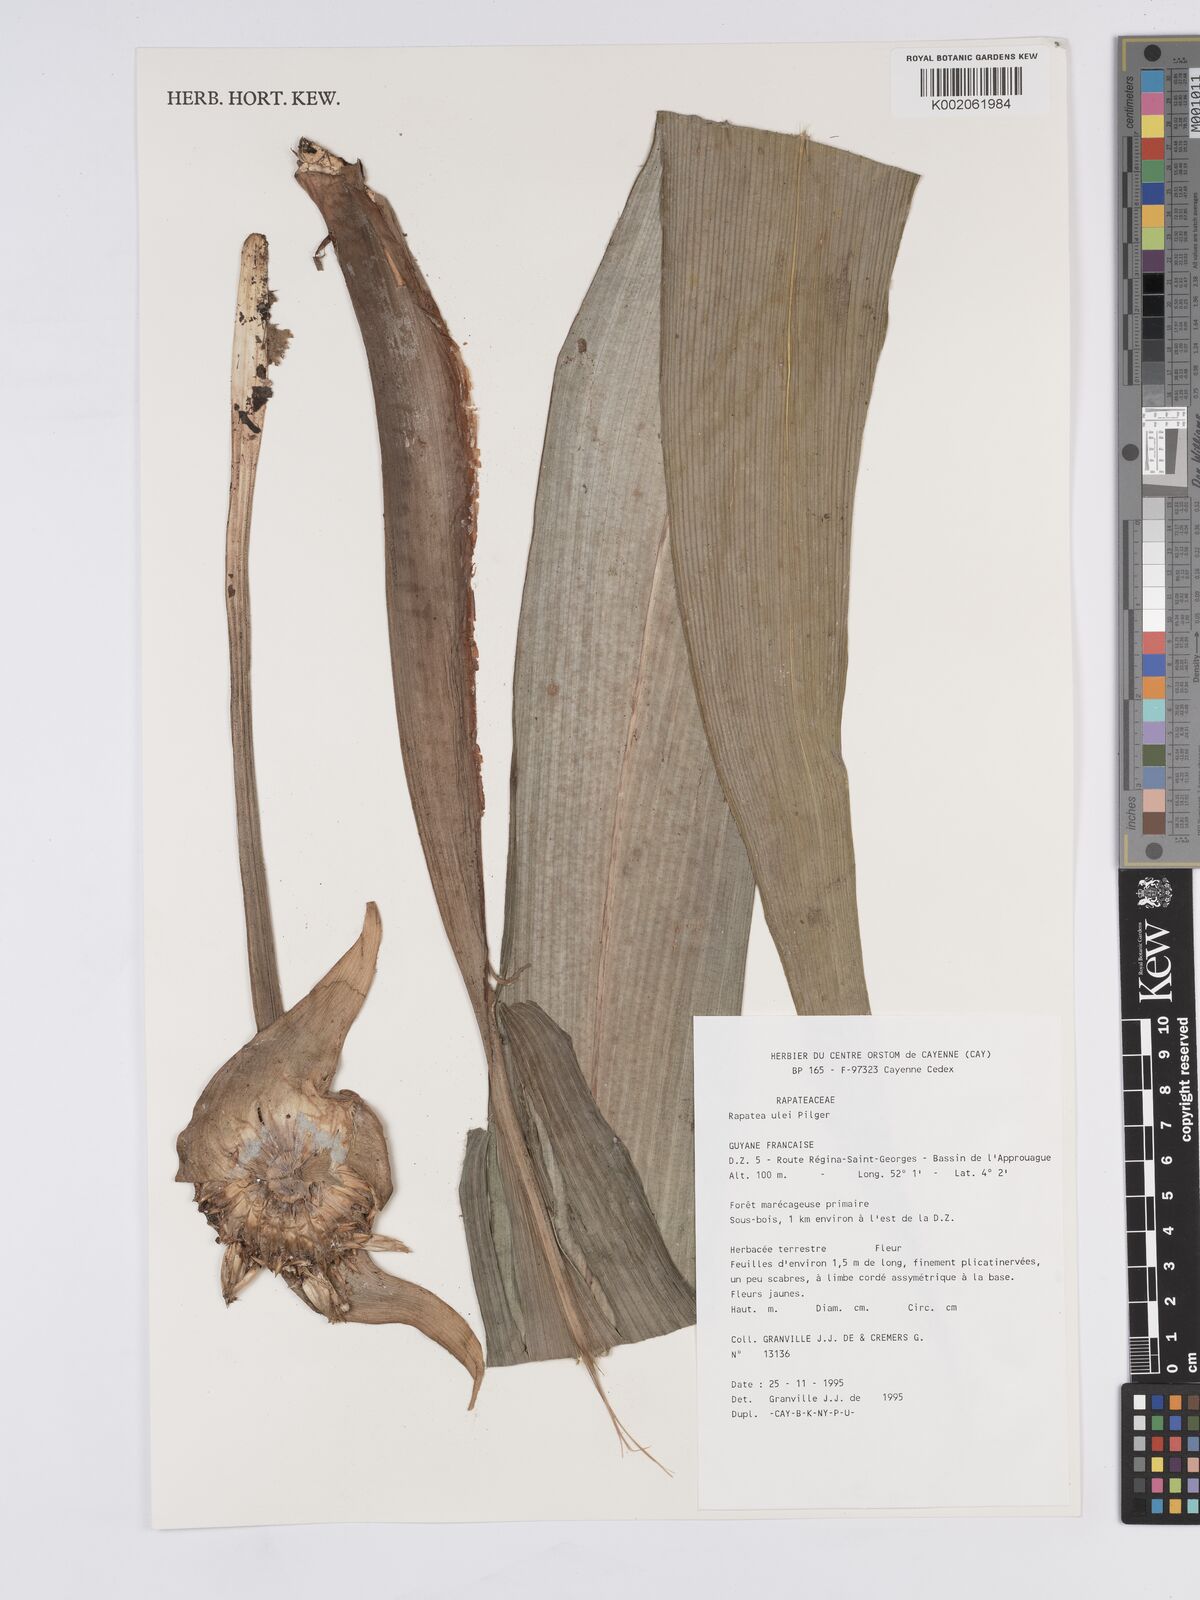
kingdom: Plantae
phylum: Tracheophyta
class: Liliopsida
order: Poales
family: Rapateaceae
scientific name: Rapateaceae
